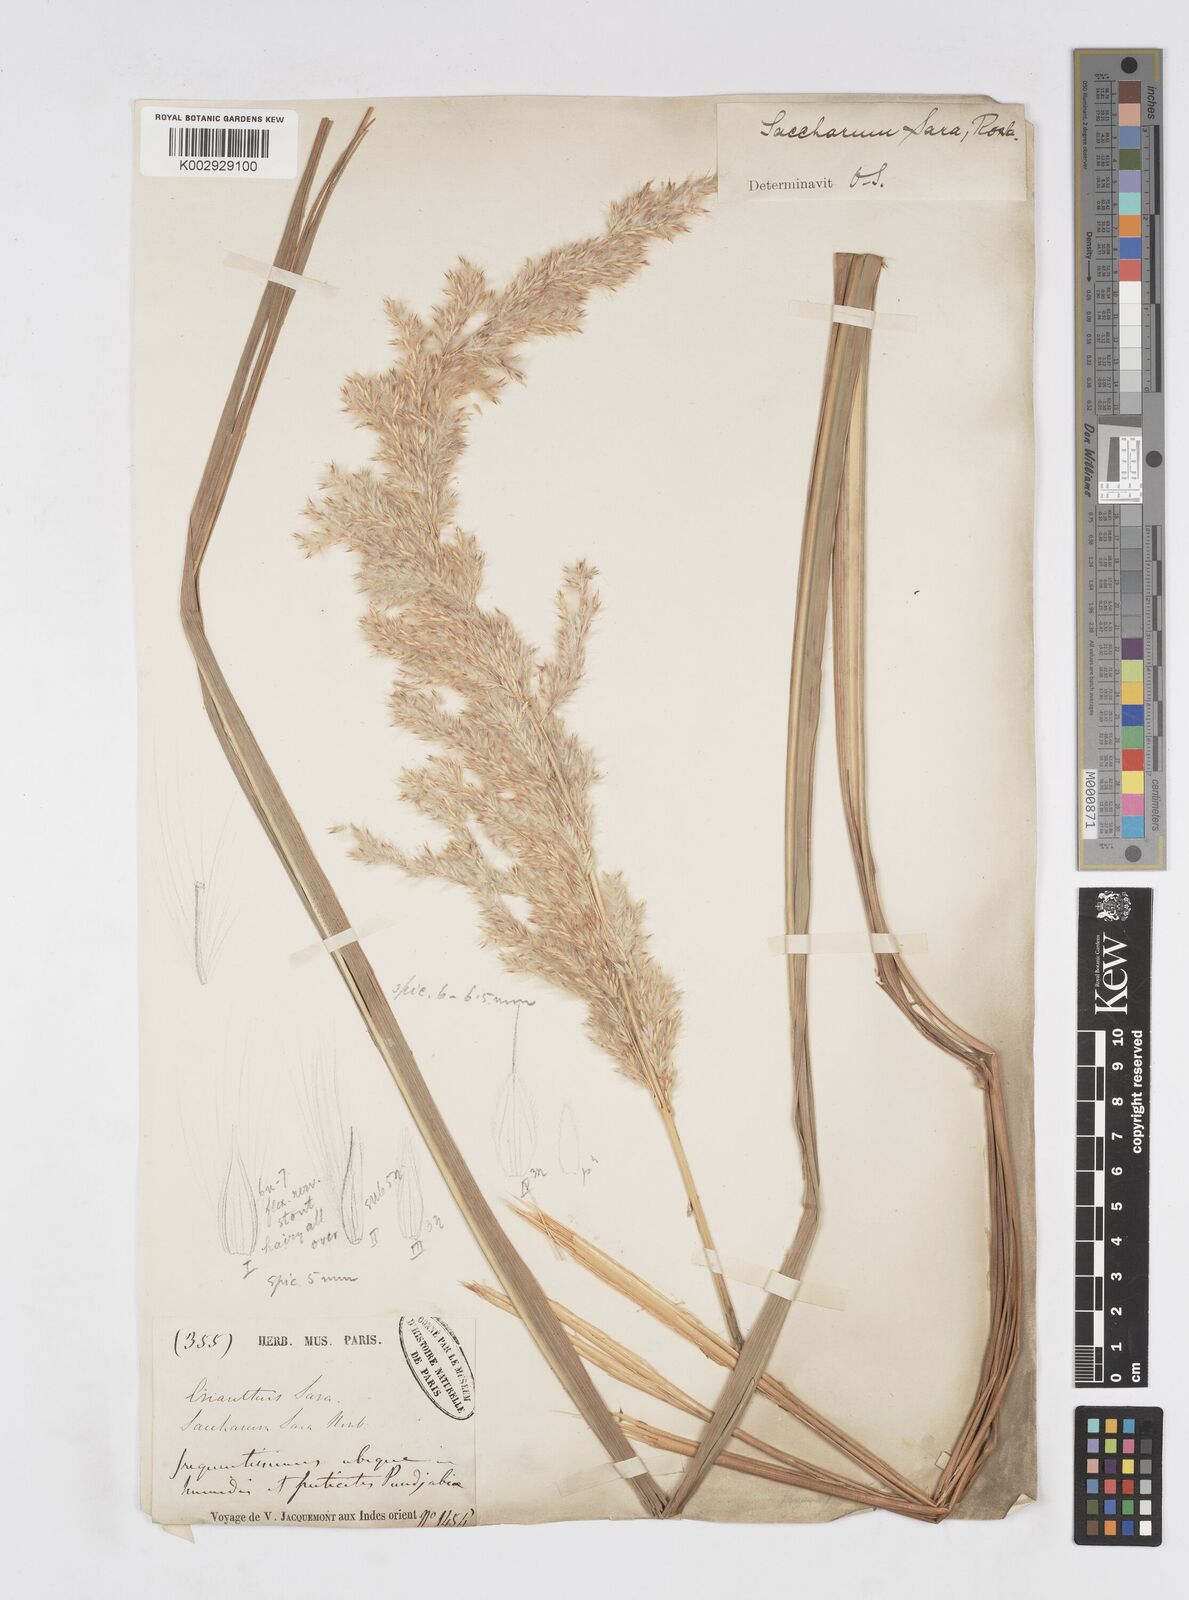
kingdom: Plantae
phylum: Tracheophyta
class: Liliopsida
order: Poales
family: Poaceae
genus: Tripidium
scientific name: Tripidium bengalense
